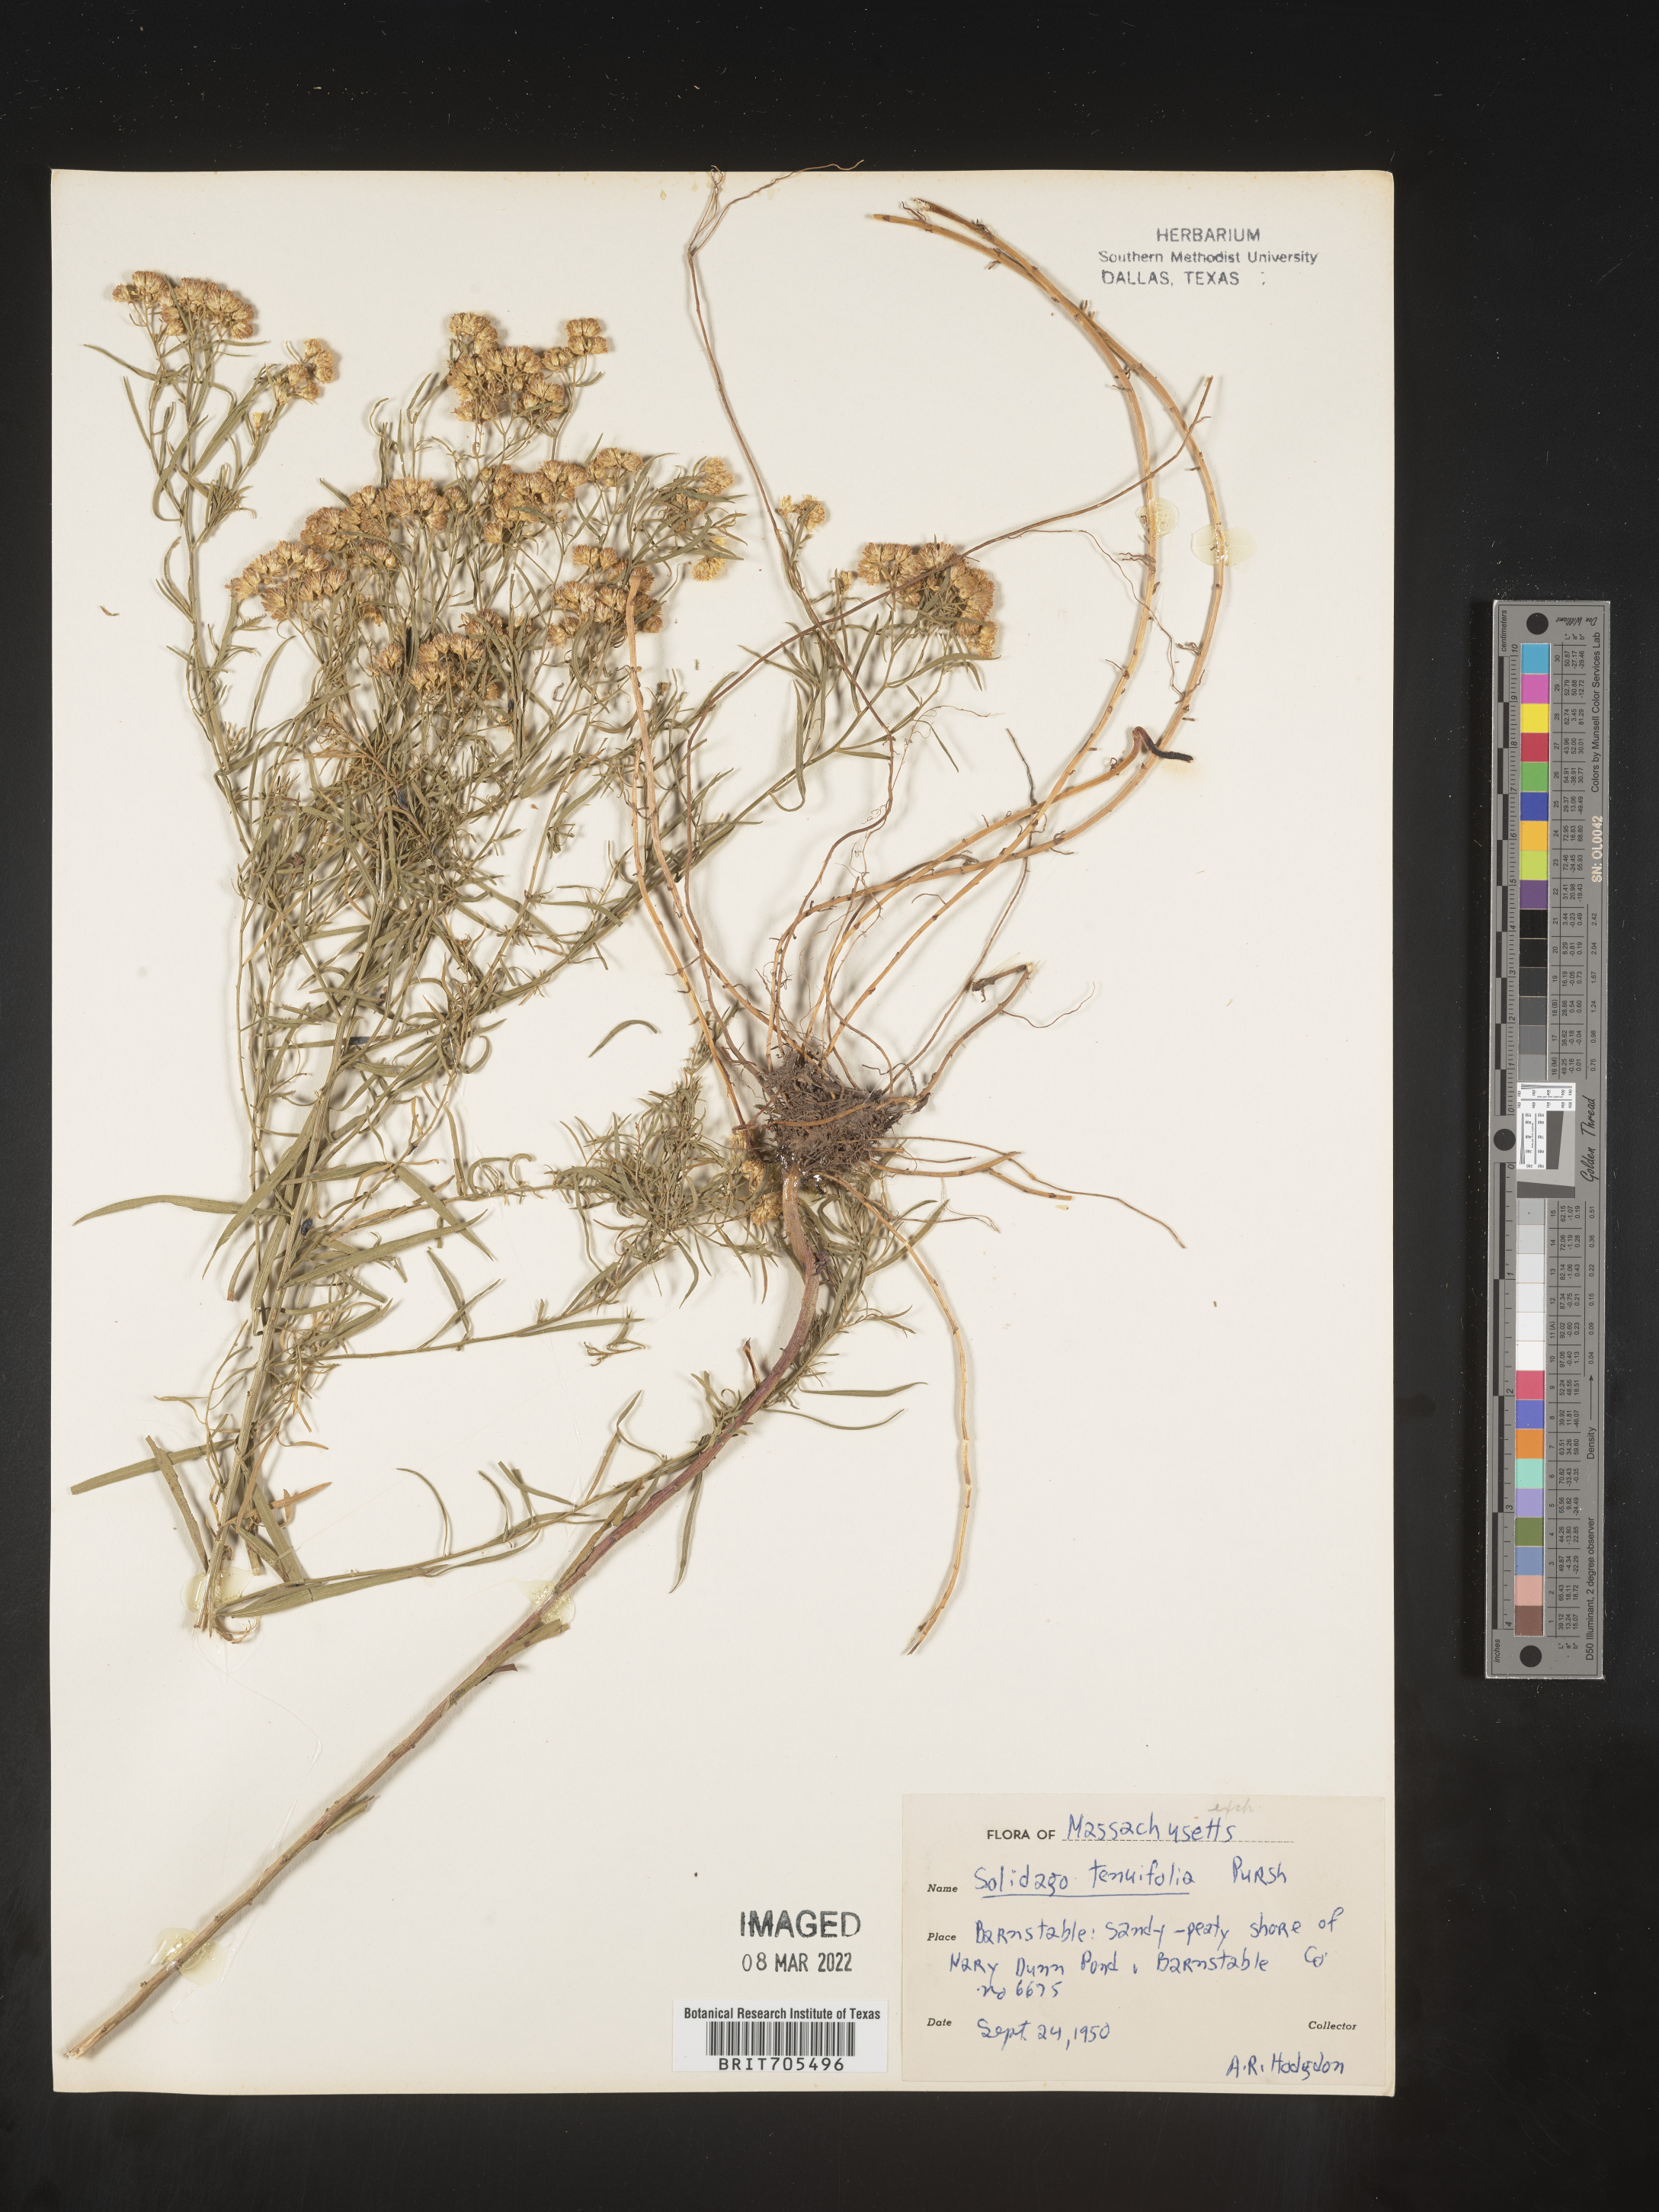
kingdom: Plantae
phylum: Tracheophyta
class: Magnoliopsida
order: Asterales
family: Asteraceae
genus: Euthamia
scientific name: Euthamia caroliniana
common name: Coastal plain goldentop
